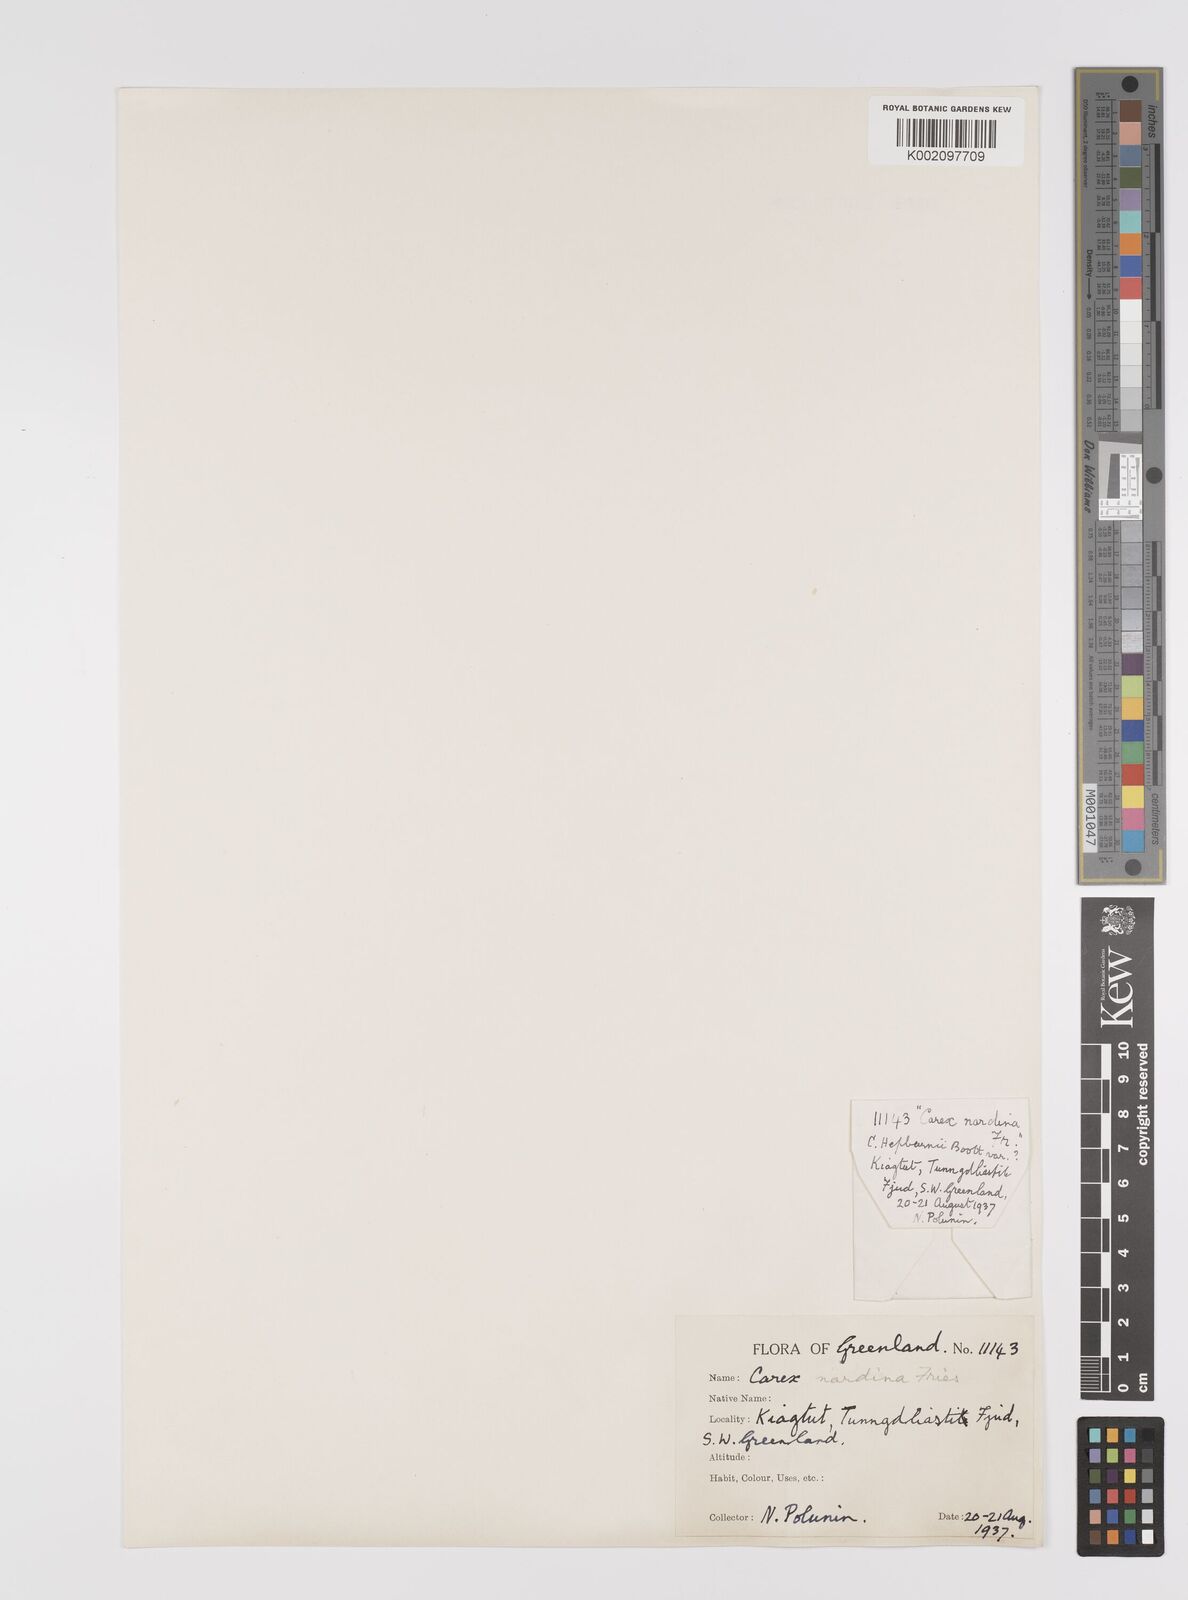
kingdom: Plantae
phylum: Tracheophyta
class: Liliopsida
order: Poales
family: Cyperaceae
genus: Carex
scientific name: Carex nardina
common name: Nard sedge
